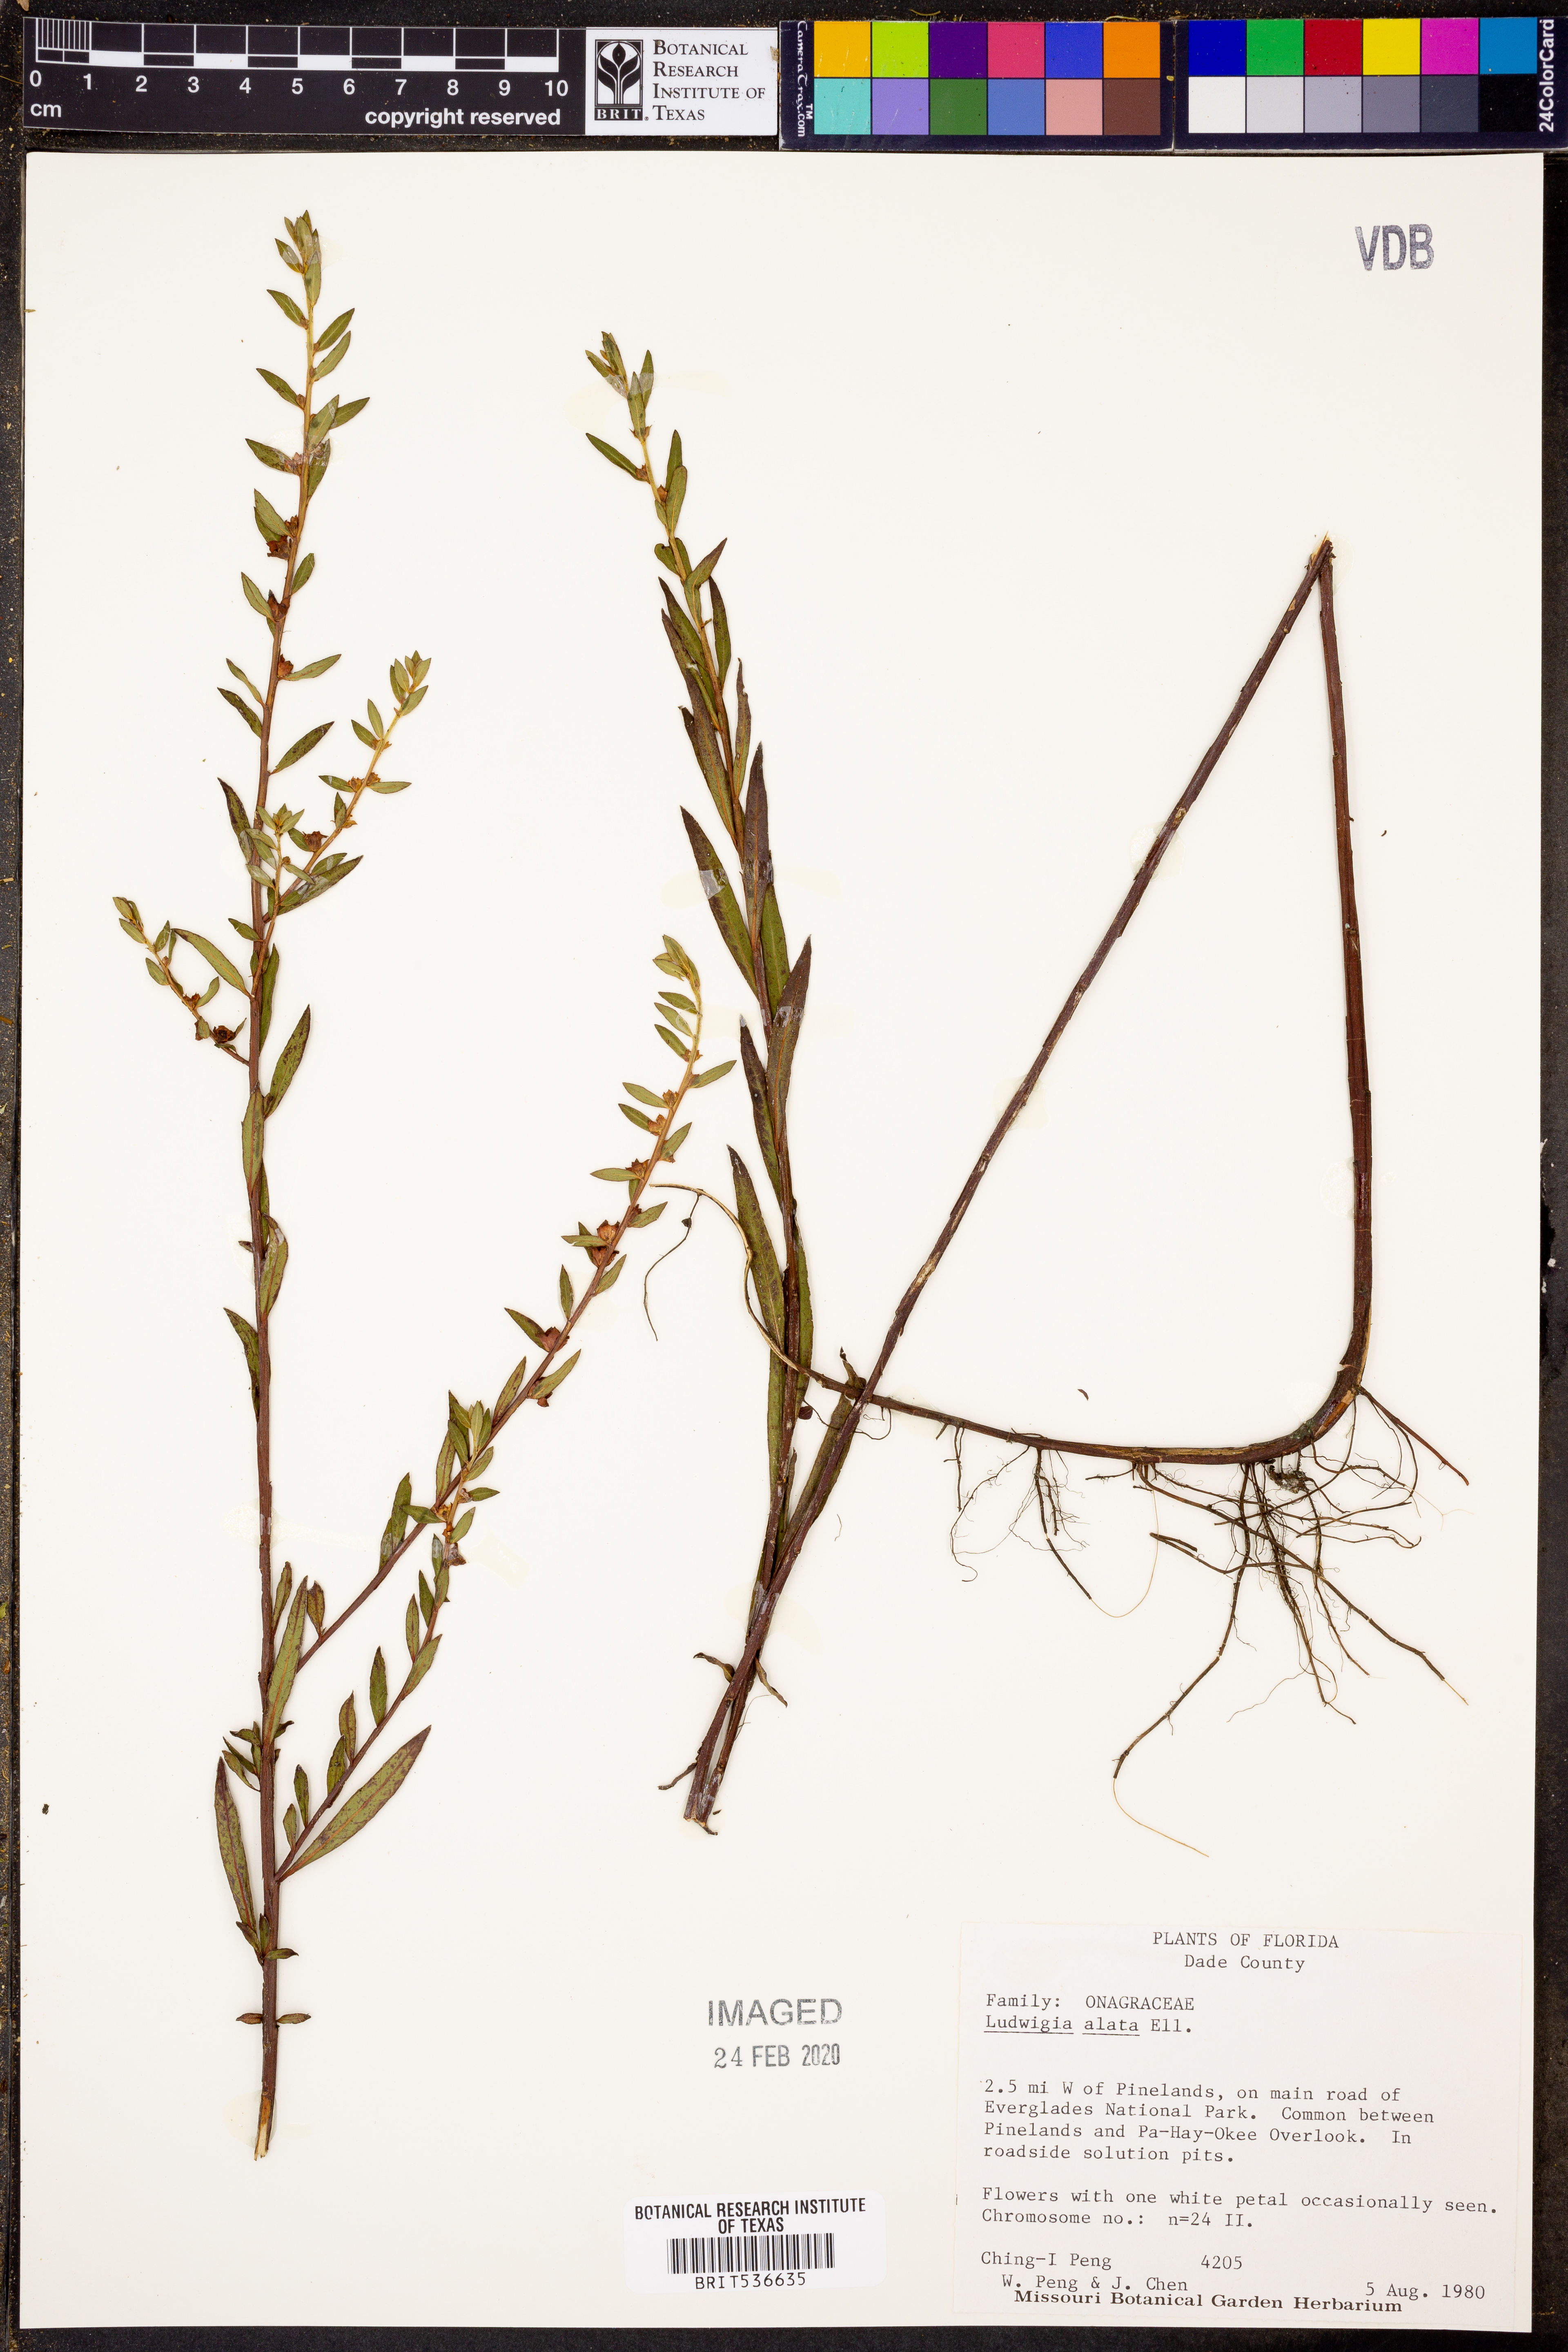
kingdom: Plantae
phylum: Tracheophyta
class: Magnoliopsida
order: Myrtales
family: Onagraceae
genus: Ludwigia
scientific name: Ludwigia alata
